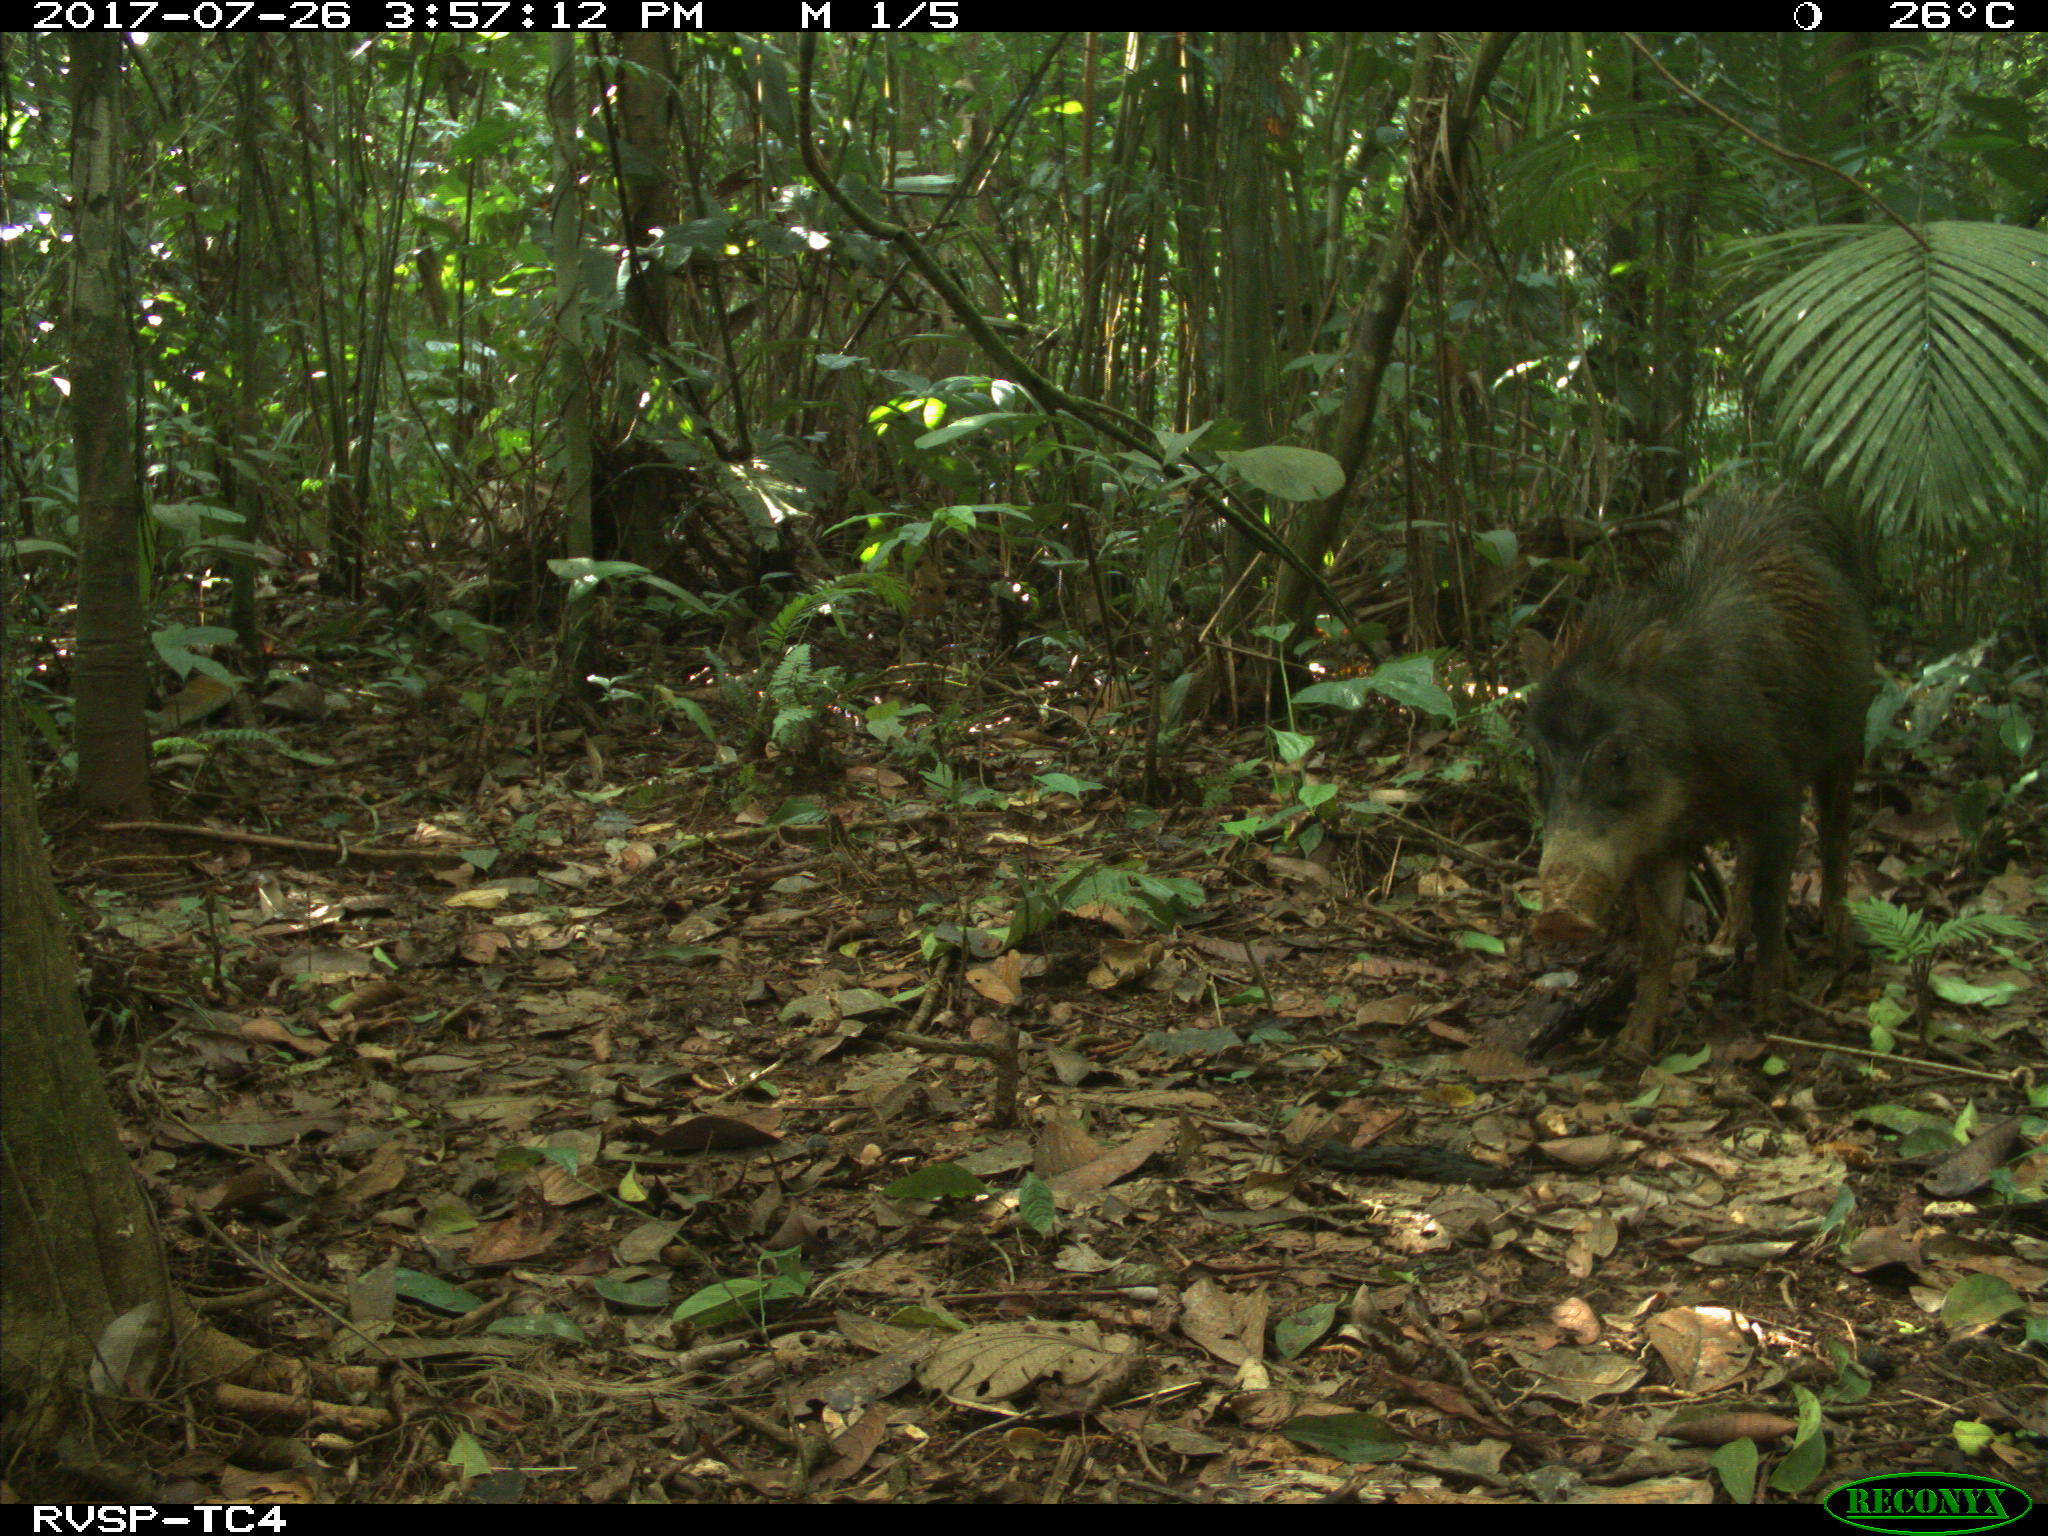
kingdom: Animalia
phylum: Chordata
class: Mammalia
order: Artiodactyla
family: Tayassuidae
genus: Tayassu
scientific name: Tayassu pecari
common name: White-lipped peccary
